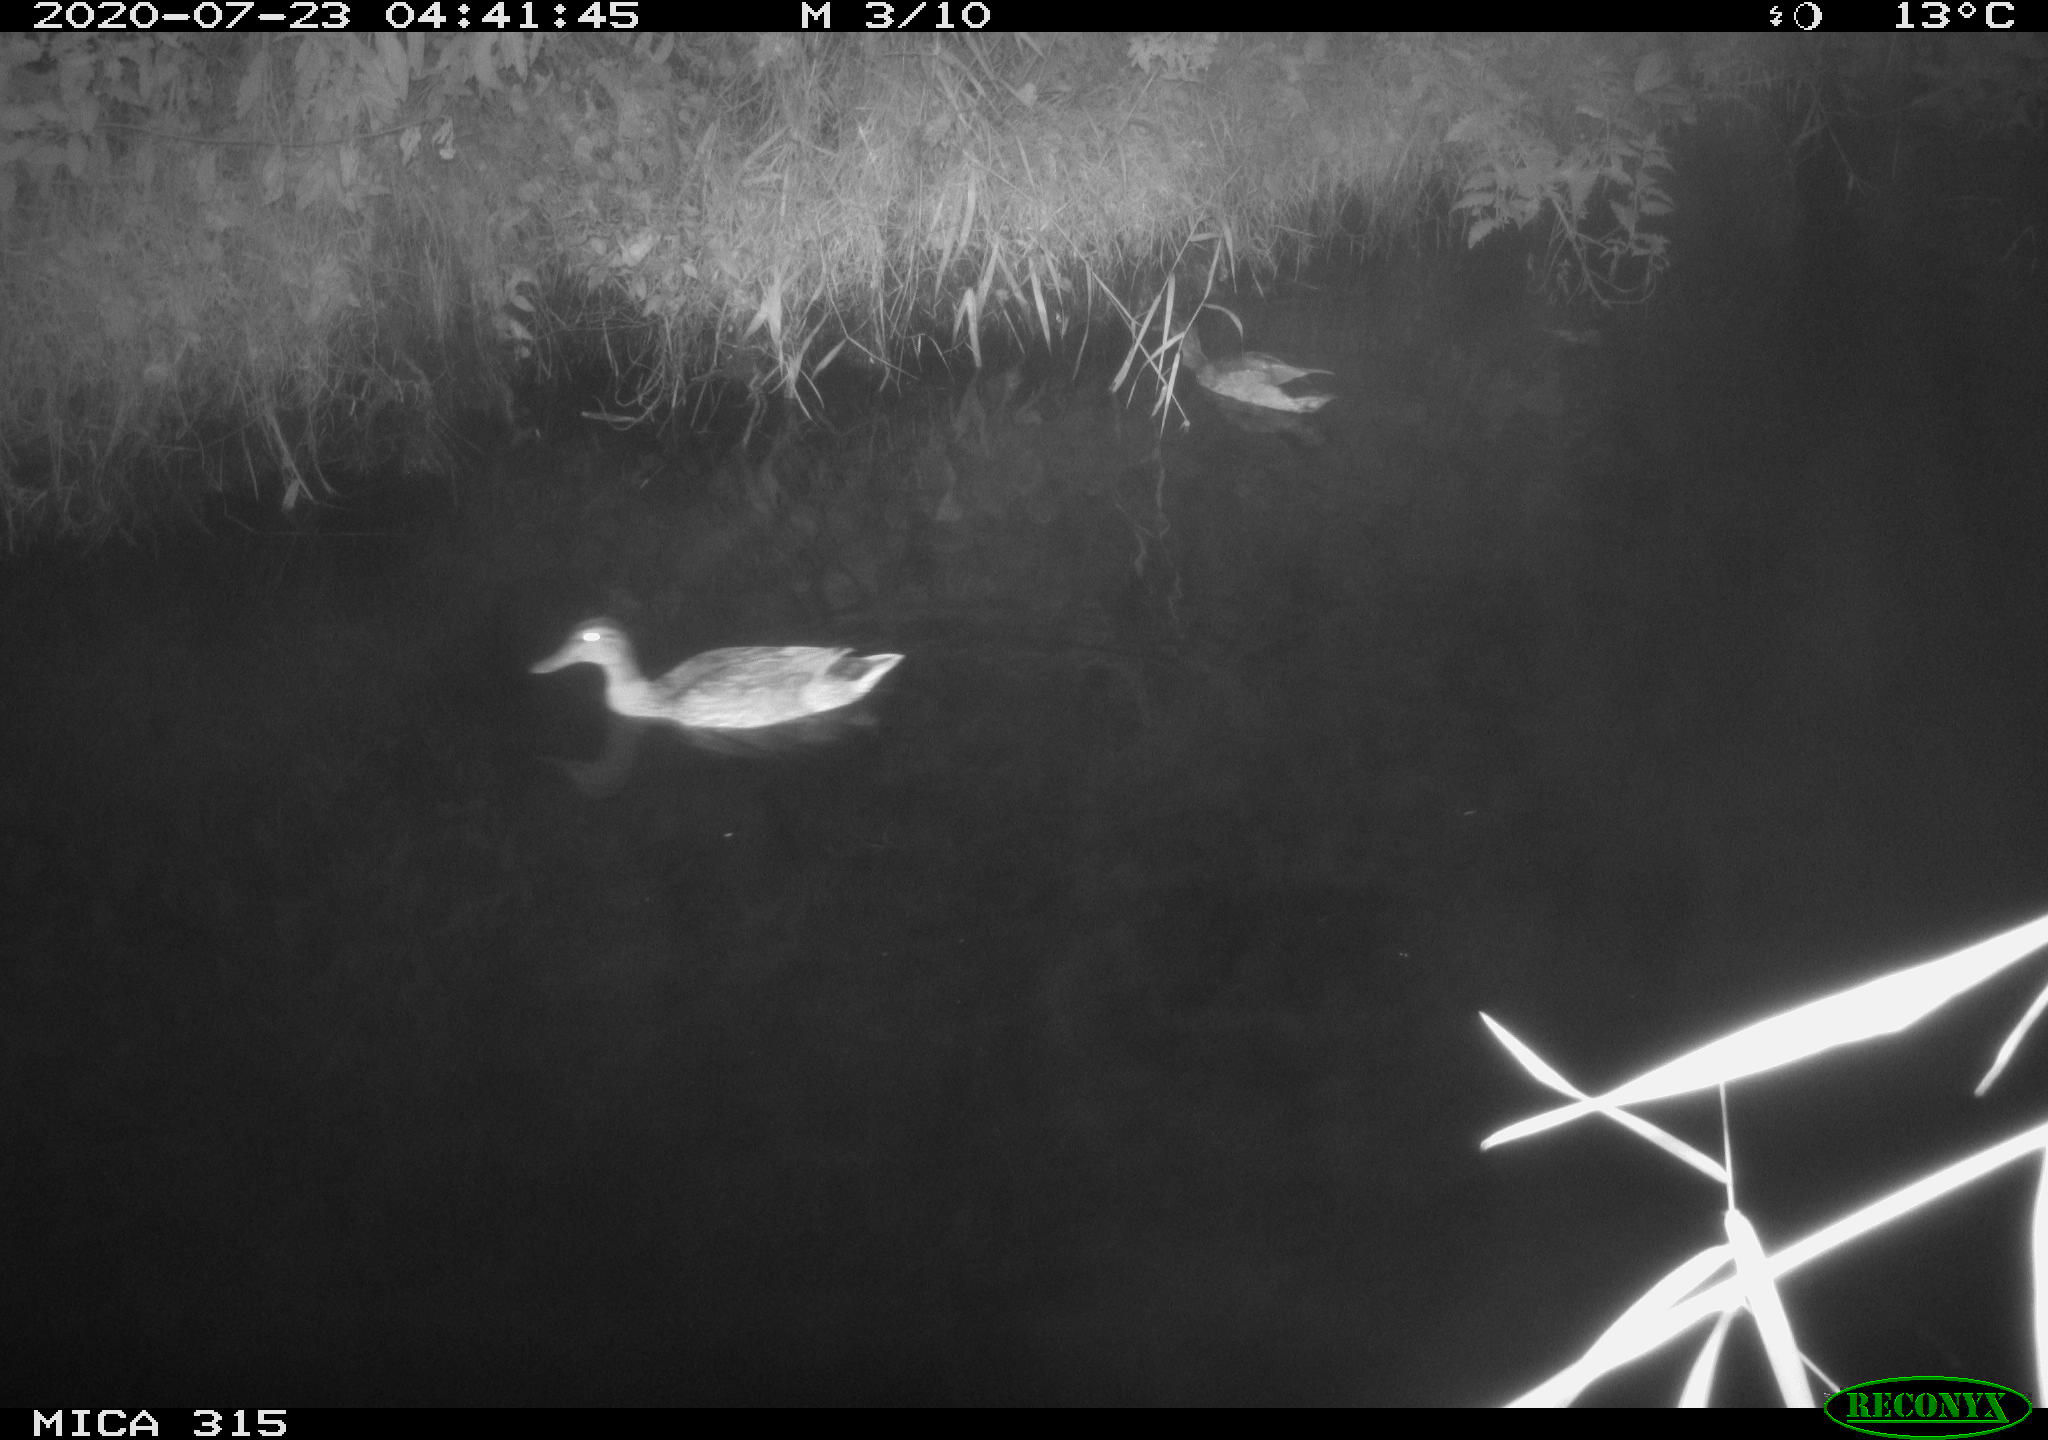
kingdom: Animalia
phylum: Chordata
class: Aves
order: Anseriformes
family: Anatidae
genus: Anas
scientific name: Anas platyrhynchos
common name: Mallard
